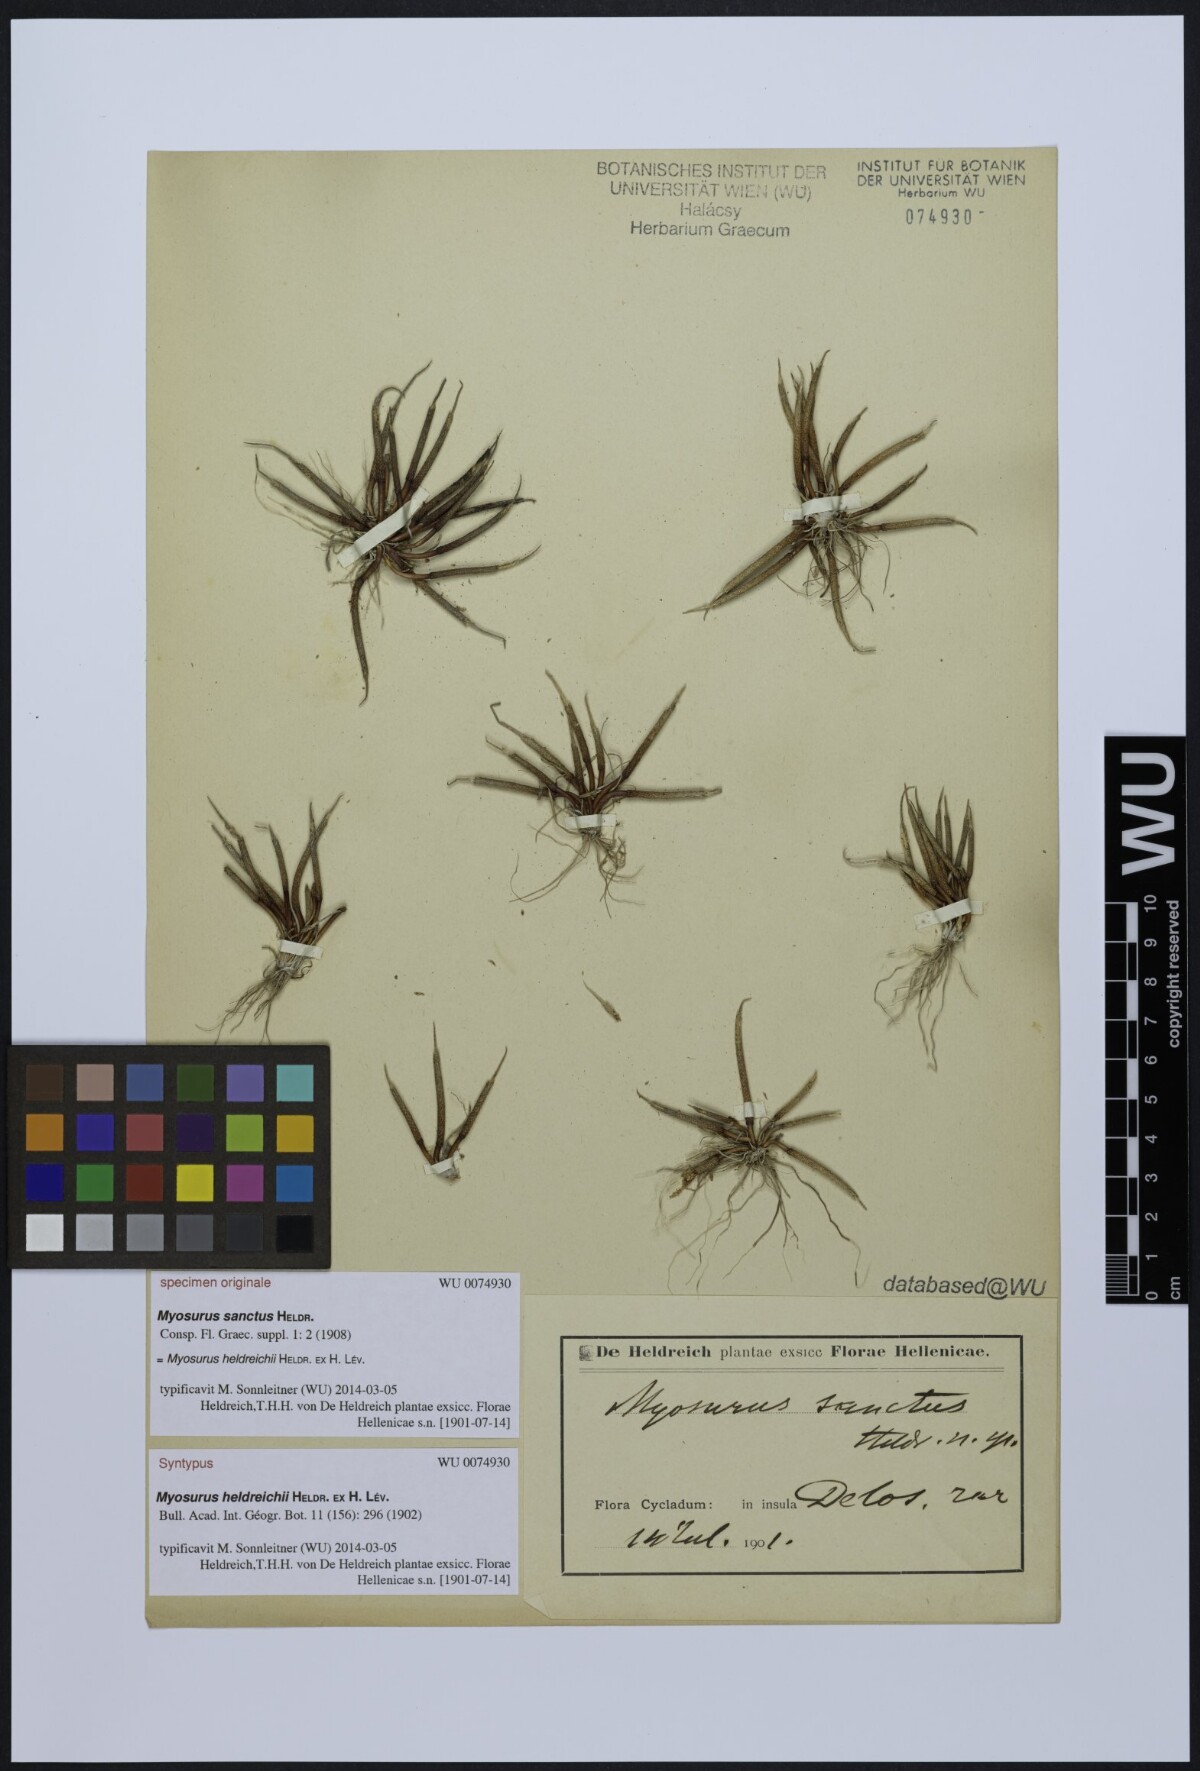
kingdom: Plantae
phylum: Tracheophyta
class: Magnoliopsida
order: Ranunculales
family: Ranunculaceae
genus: Myosurus
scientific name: Myosurus breviscapus
